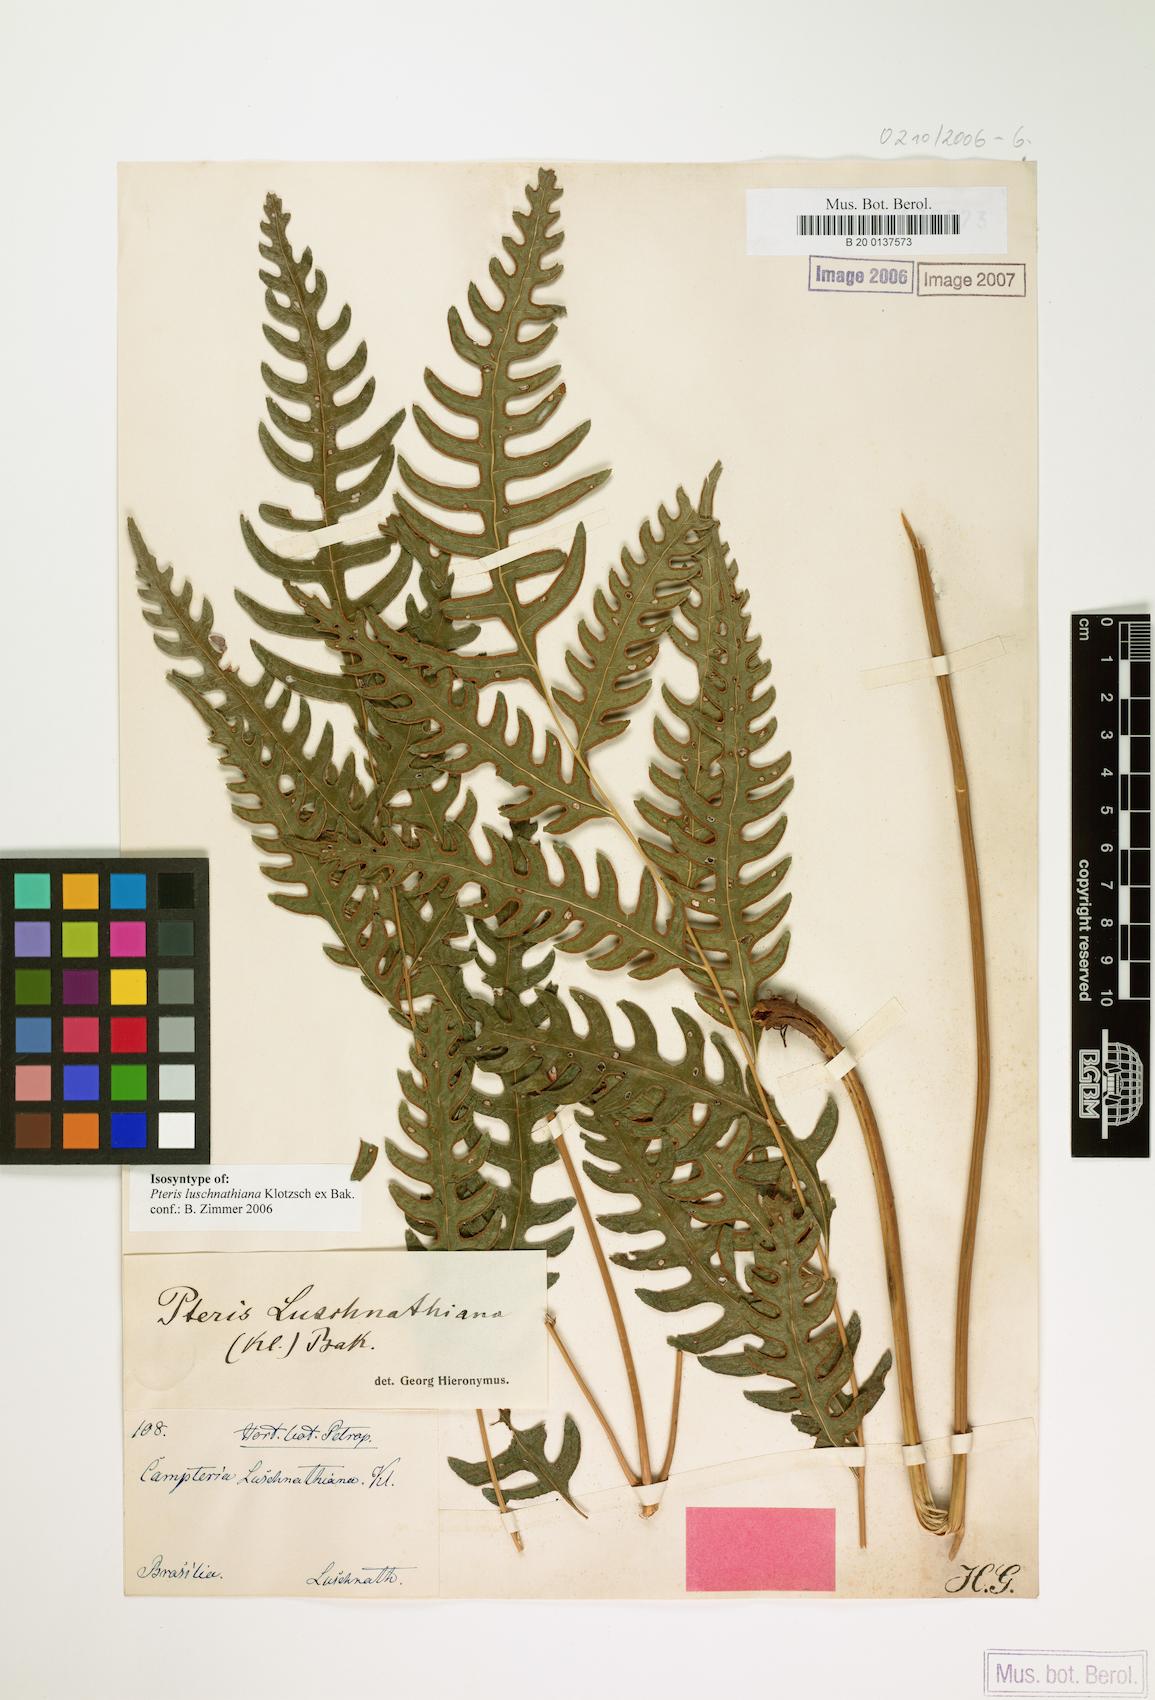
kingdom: Plantae
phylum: Tracheophyta
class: Polypodiopsida
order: Polypodiales
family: Pteridaceae
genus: Pteris
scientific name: Pteris propinqua
